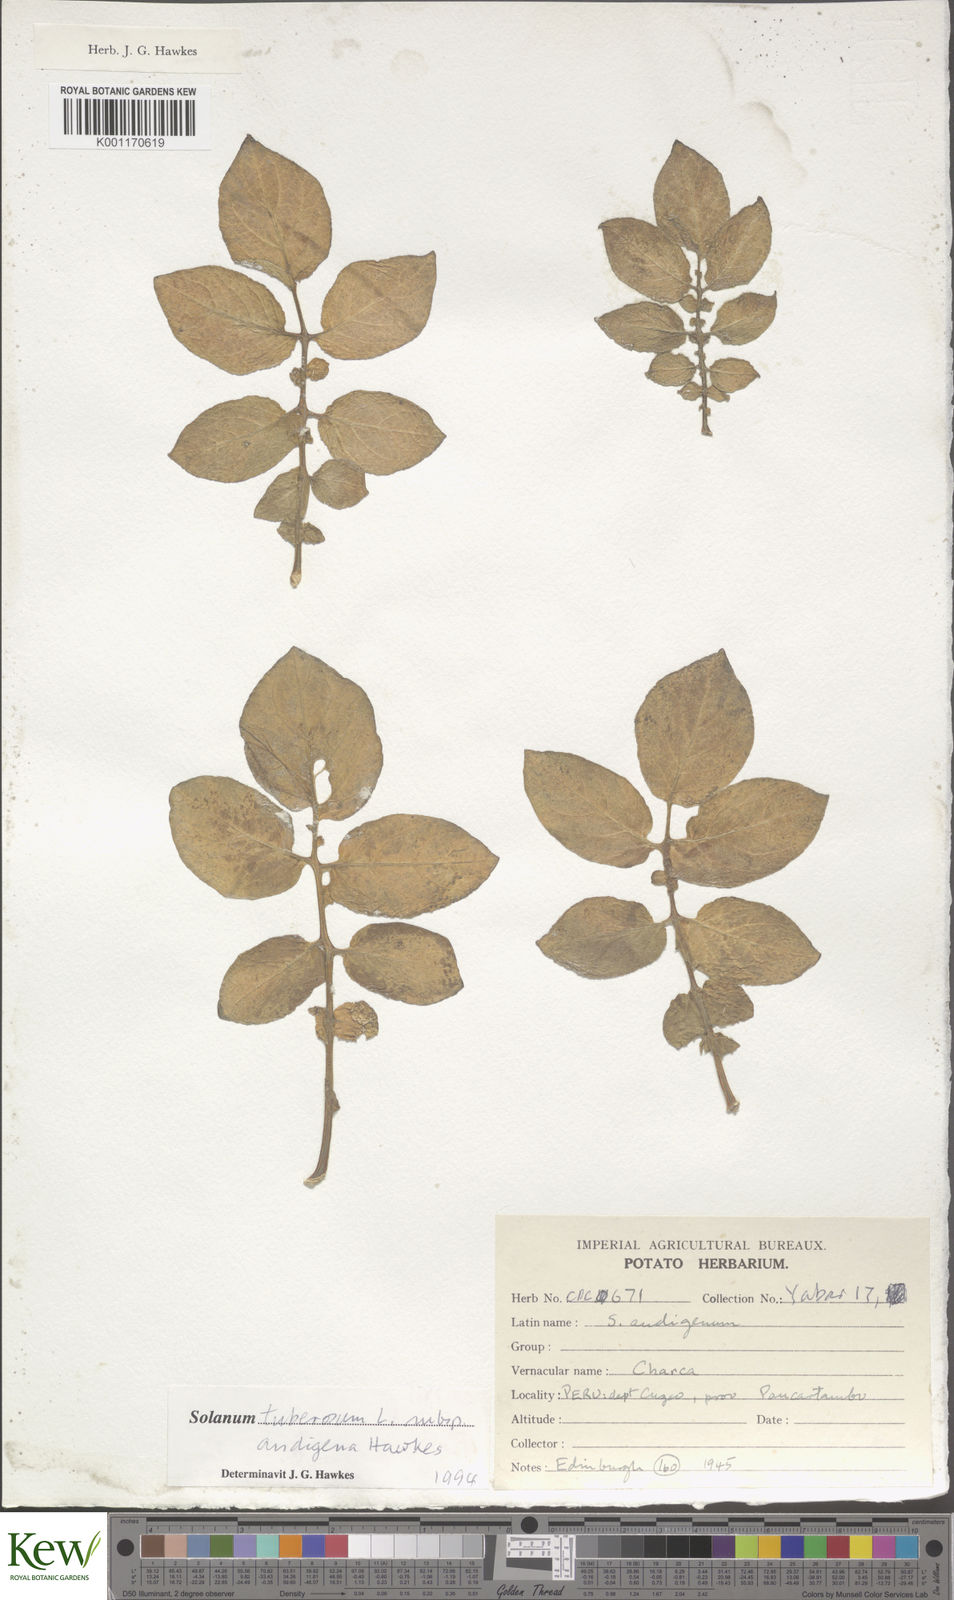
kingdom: Plantae
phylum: Tracheophyta
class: Magnoliopsida
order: Solanales
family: Solanaceae
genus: Solanum
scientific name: Solanum tuberosum
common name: Potato
